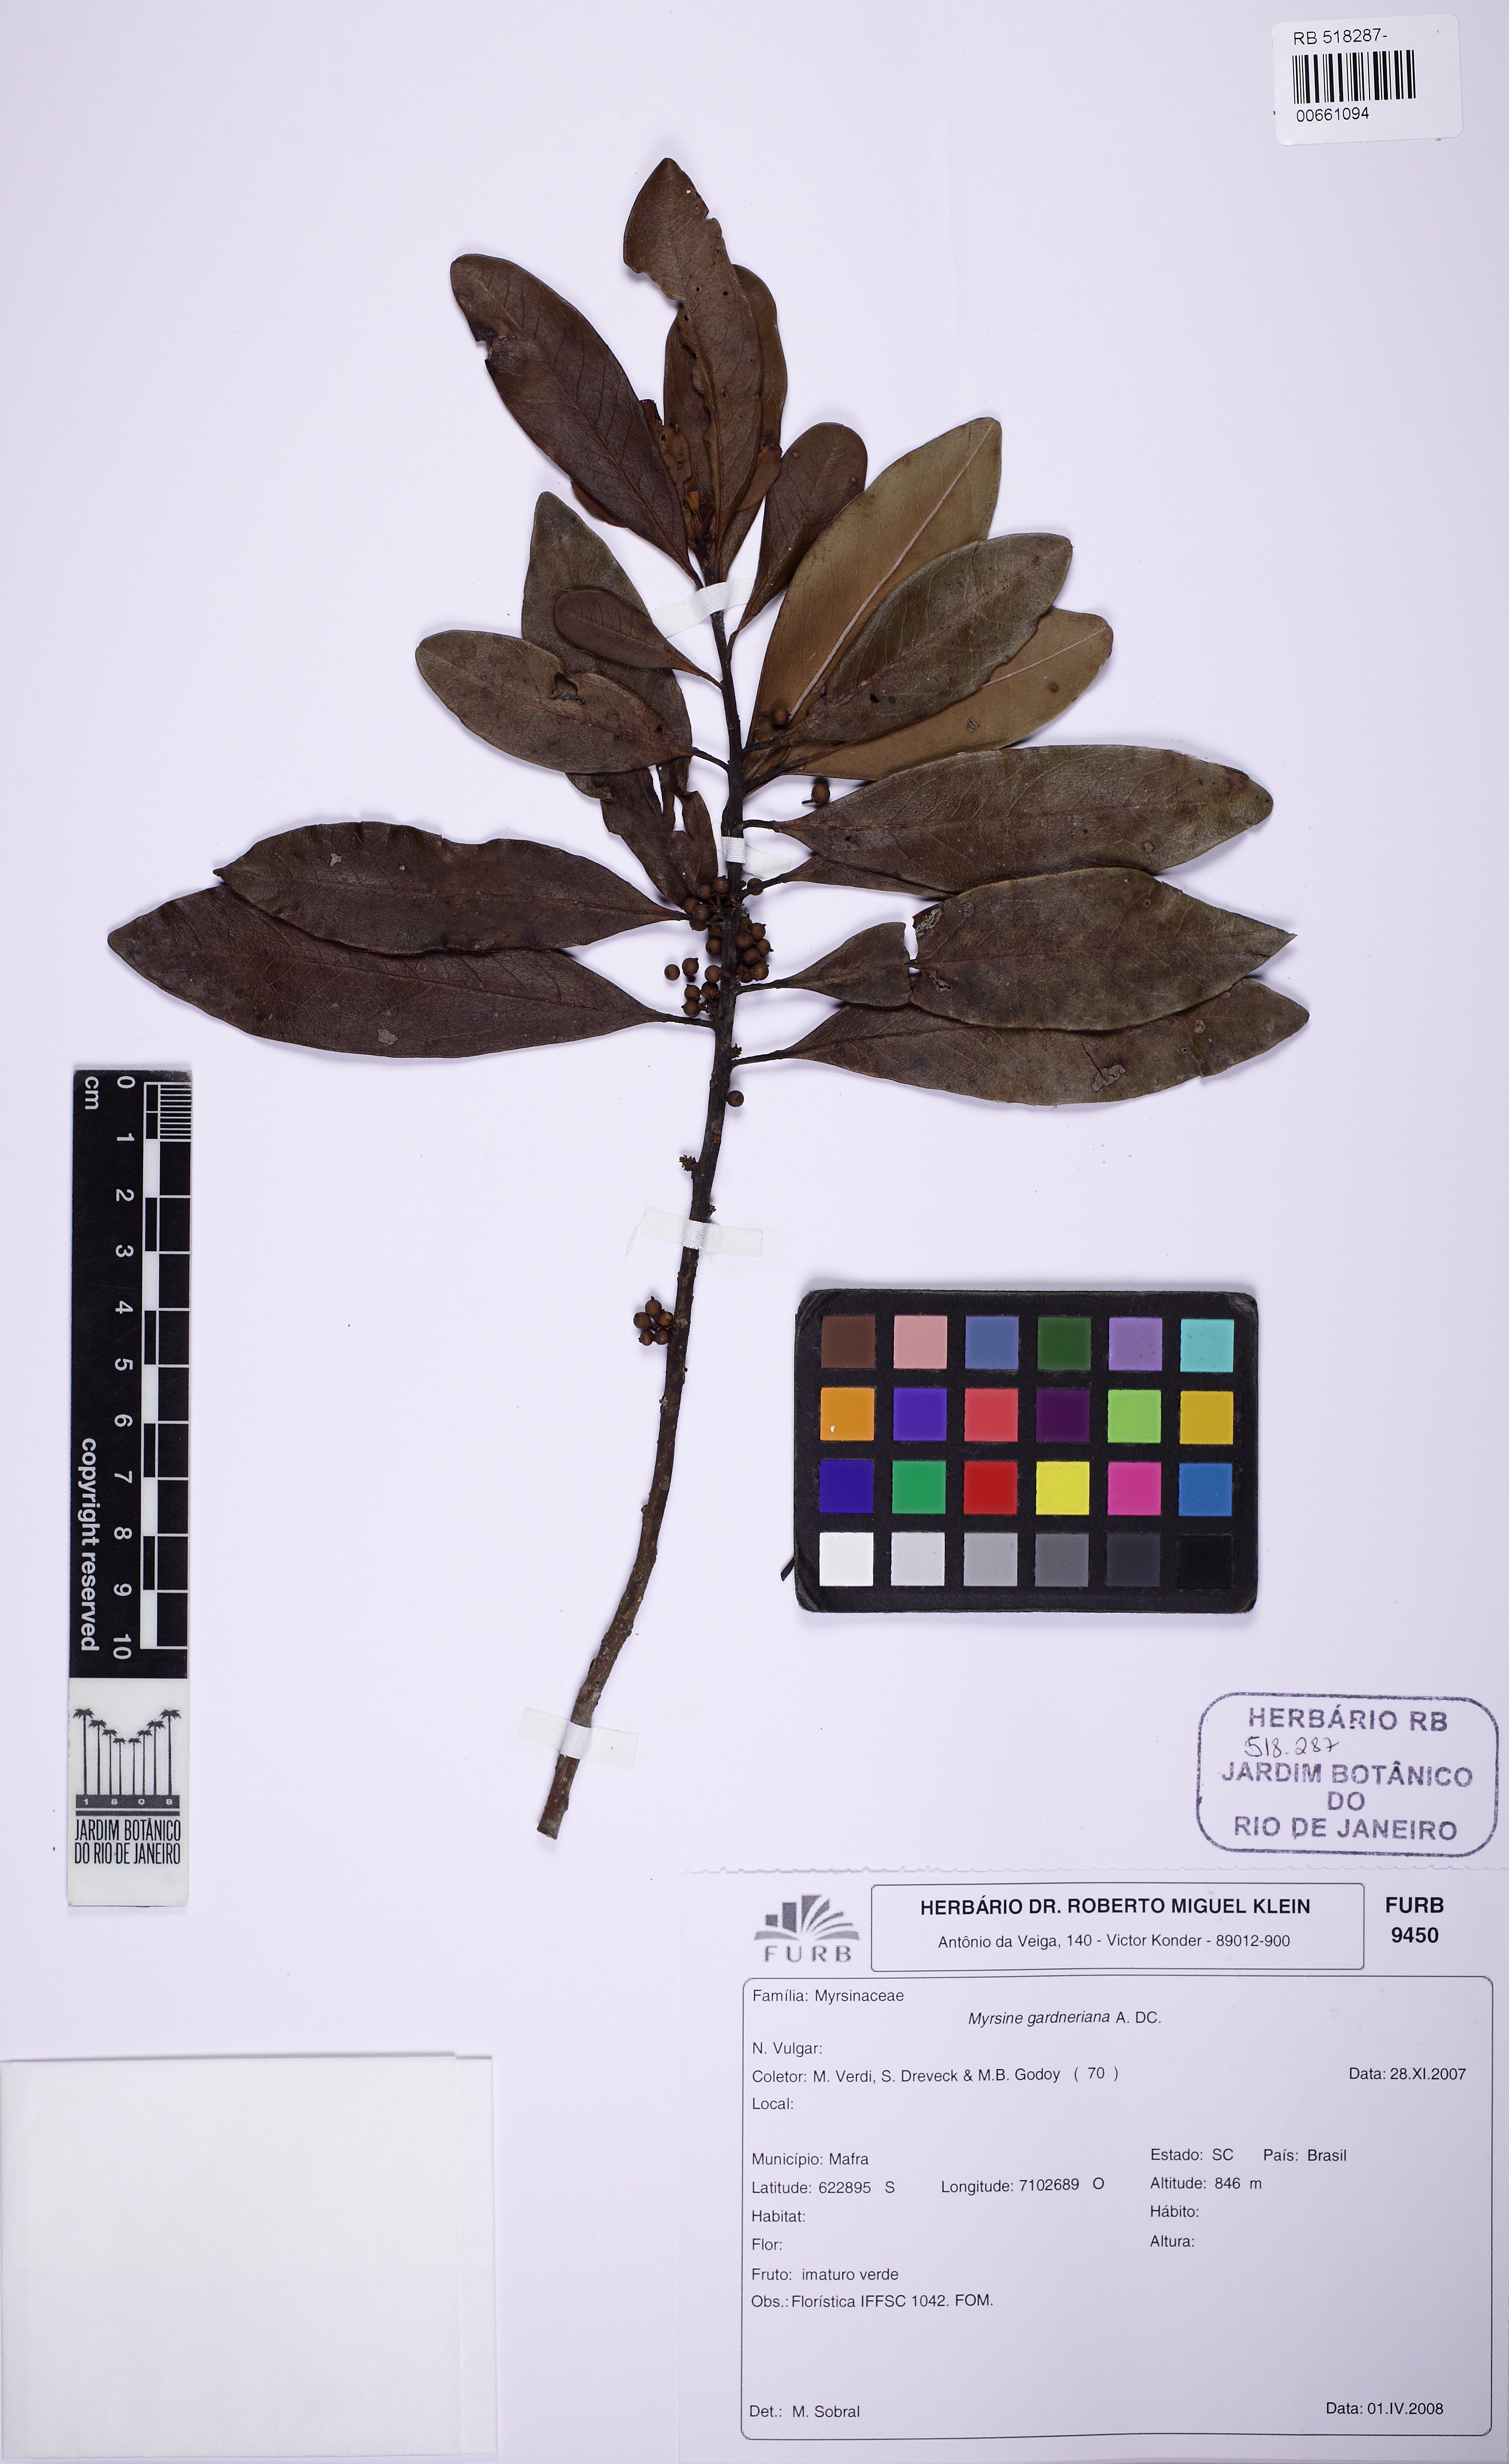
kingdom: Plantae
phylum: Tracheophyta
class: Magnoliopsida
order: Ericales
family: Primulaceae
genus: Myrsine
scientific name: Myrsine gardneriana
